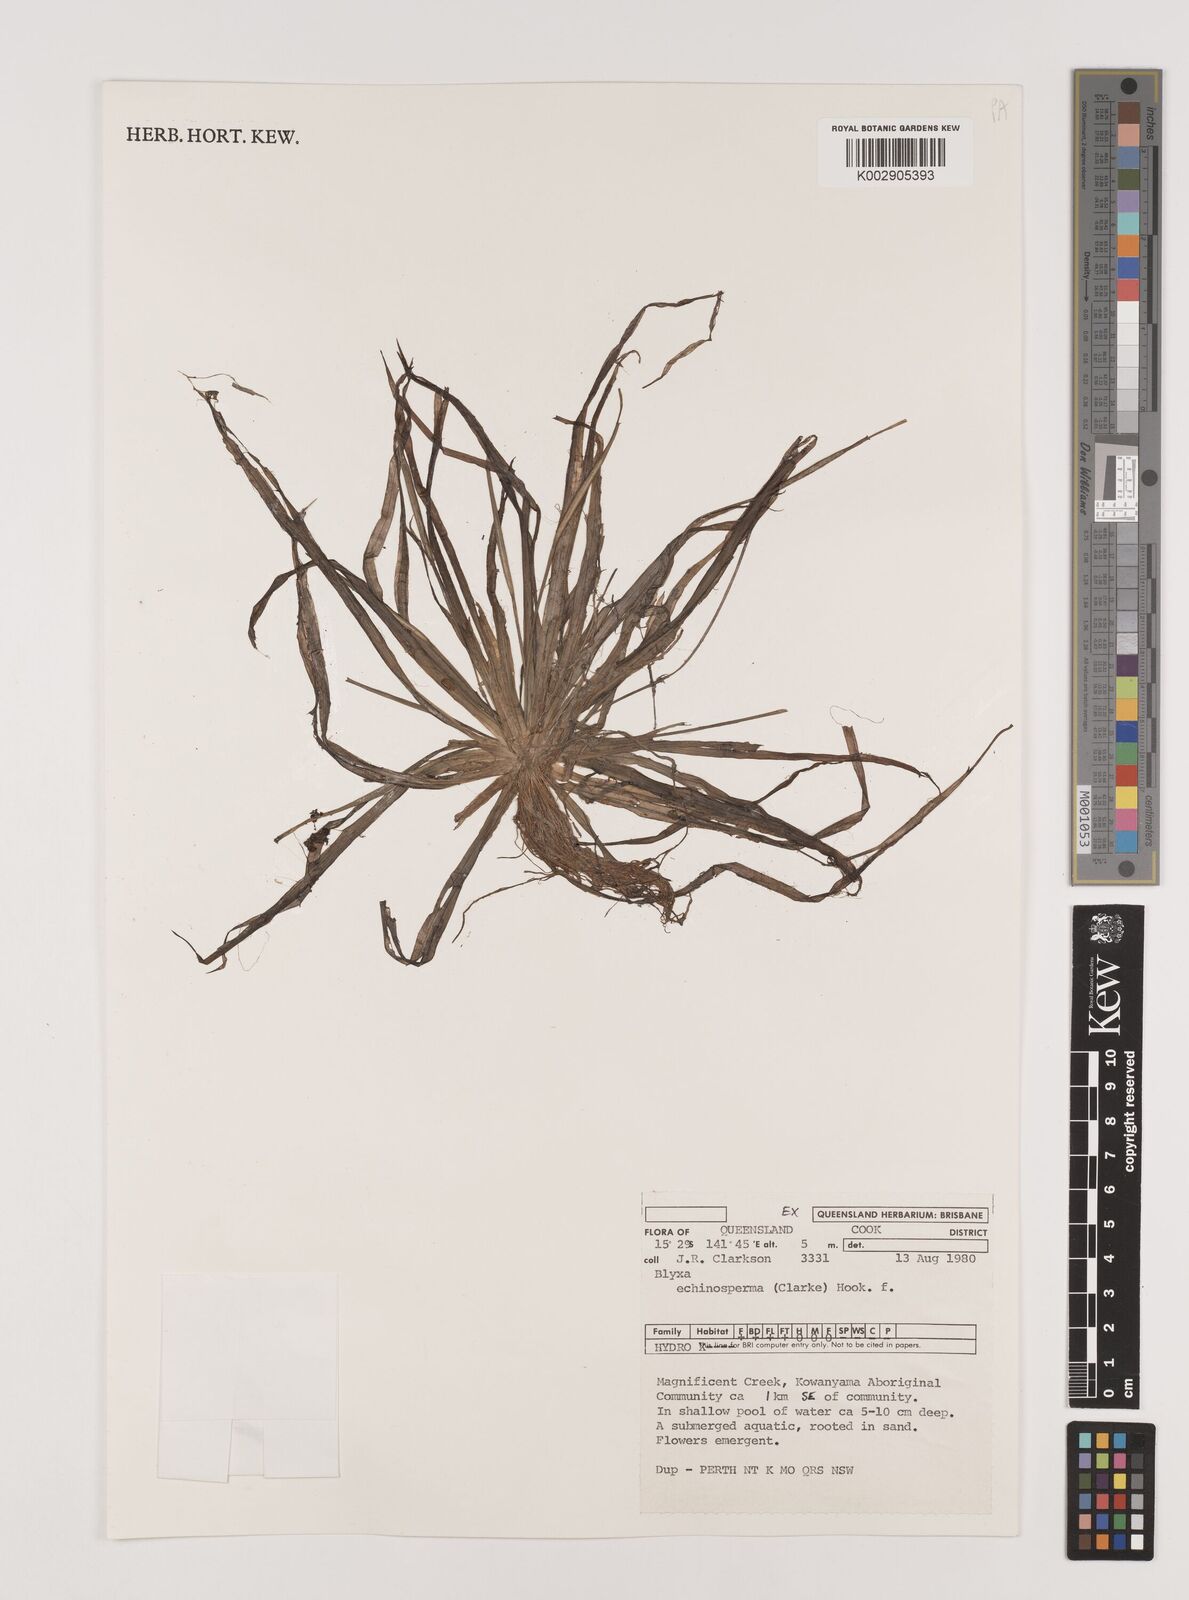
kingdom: Plantae
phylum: Tracheophyta
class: Liliopsida
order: Alismatales
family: Hydrocharitaceae
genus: Blyxa
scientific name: Blyxa echinosperma
